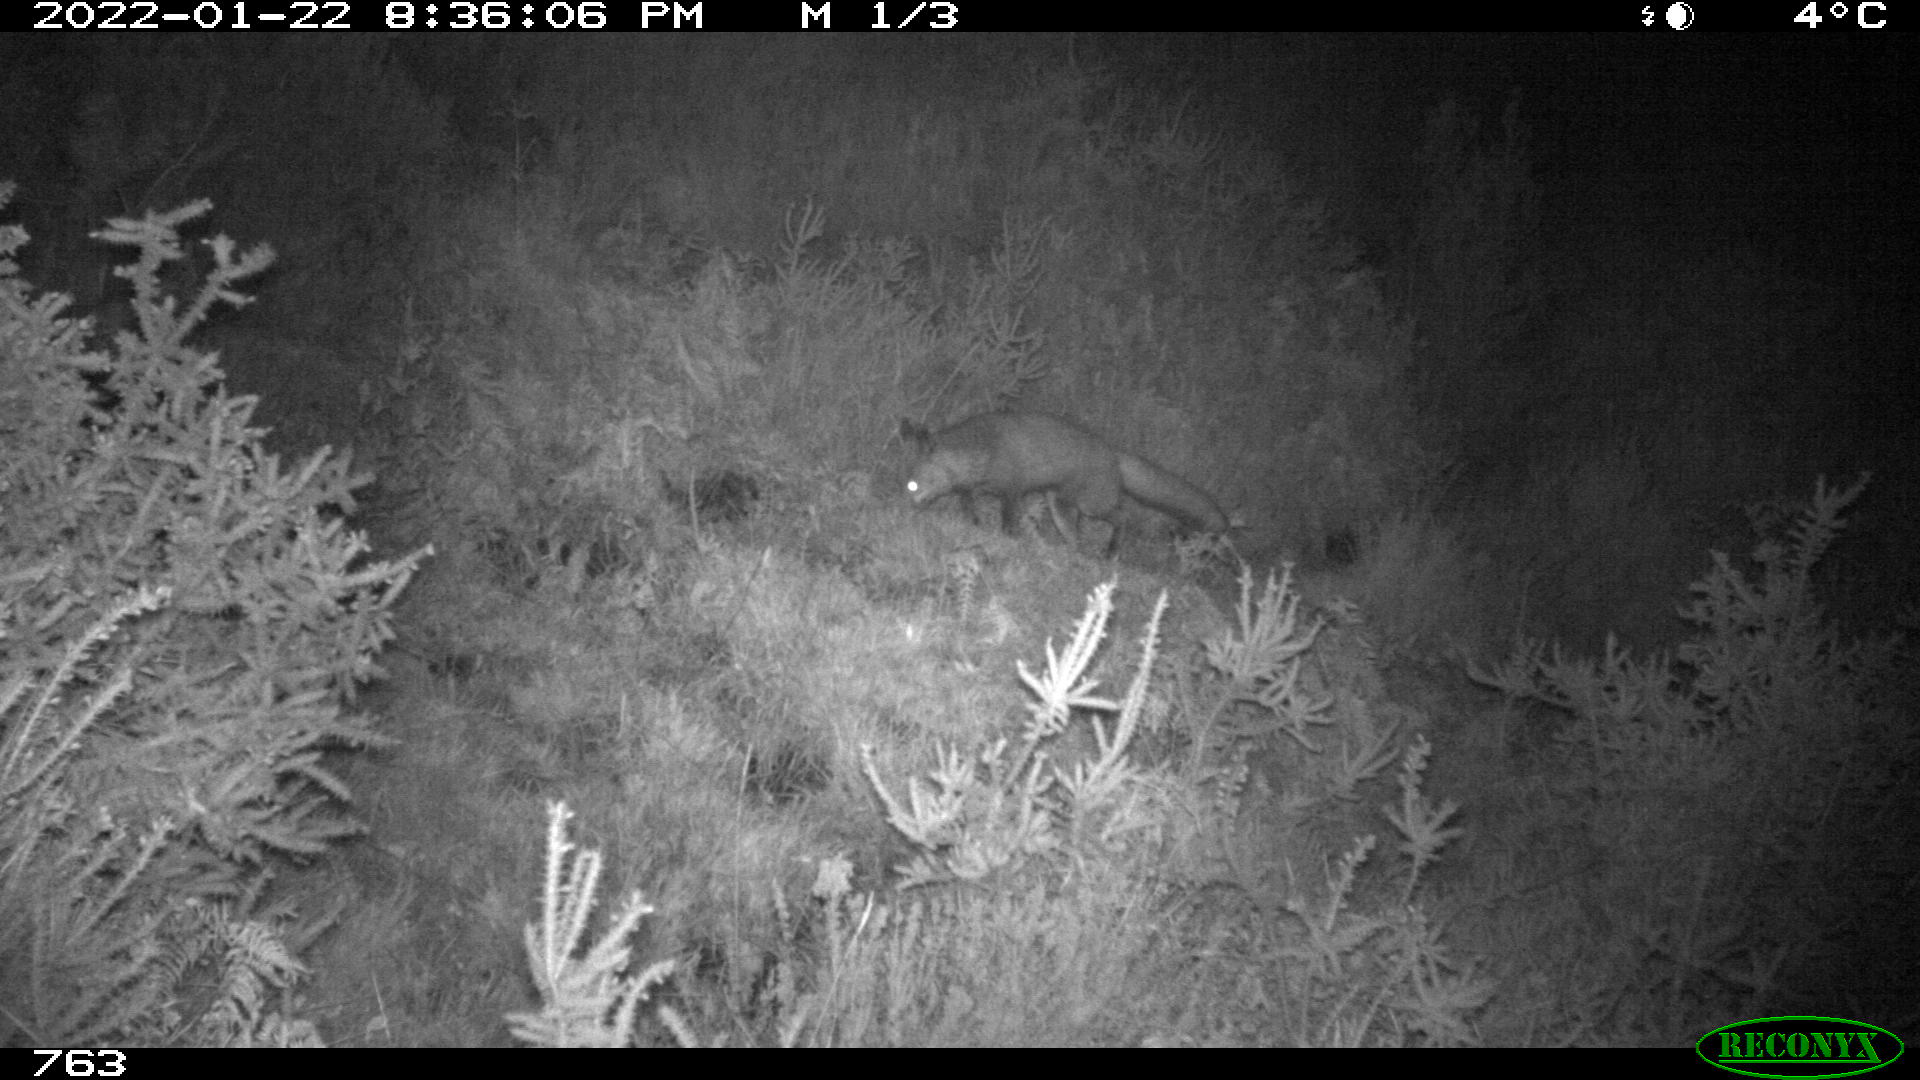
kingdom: Animalia
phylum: Chordata
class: Mammalia
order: Carnivora
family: Canidae
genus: Vulpes
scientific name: Vulpes vulpes
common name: Red fox
